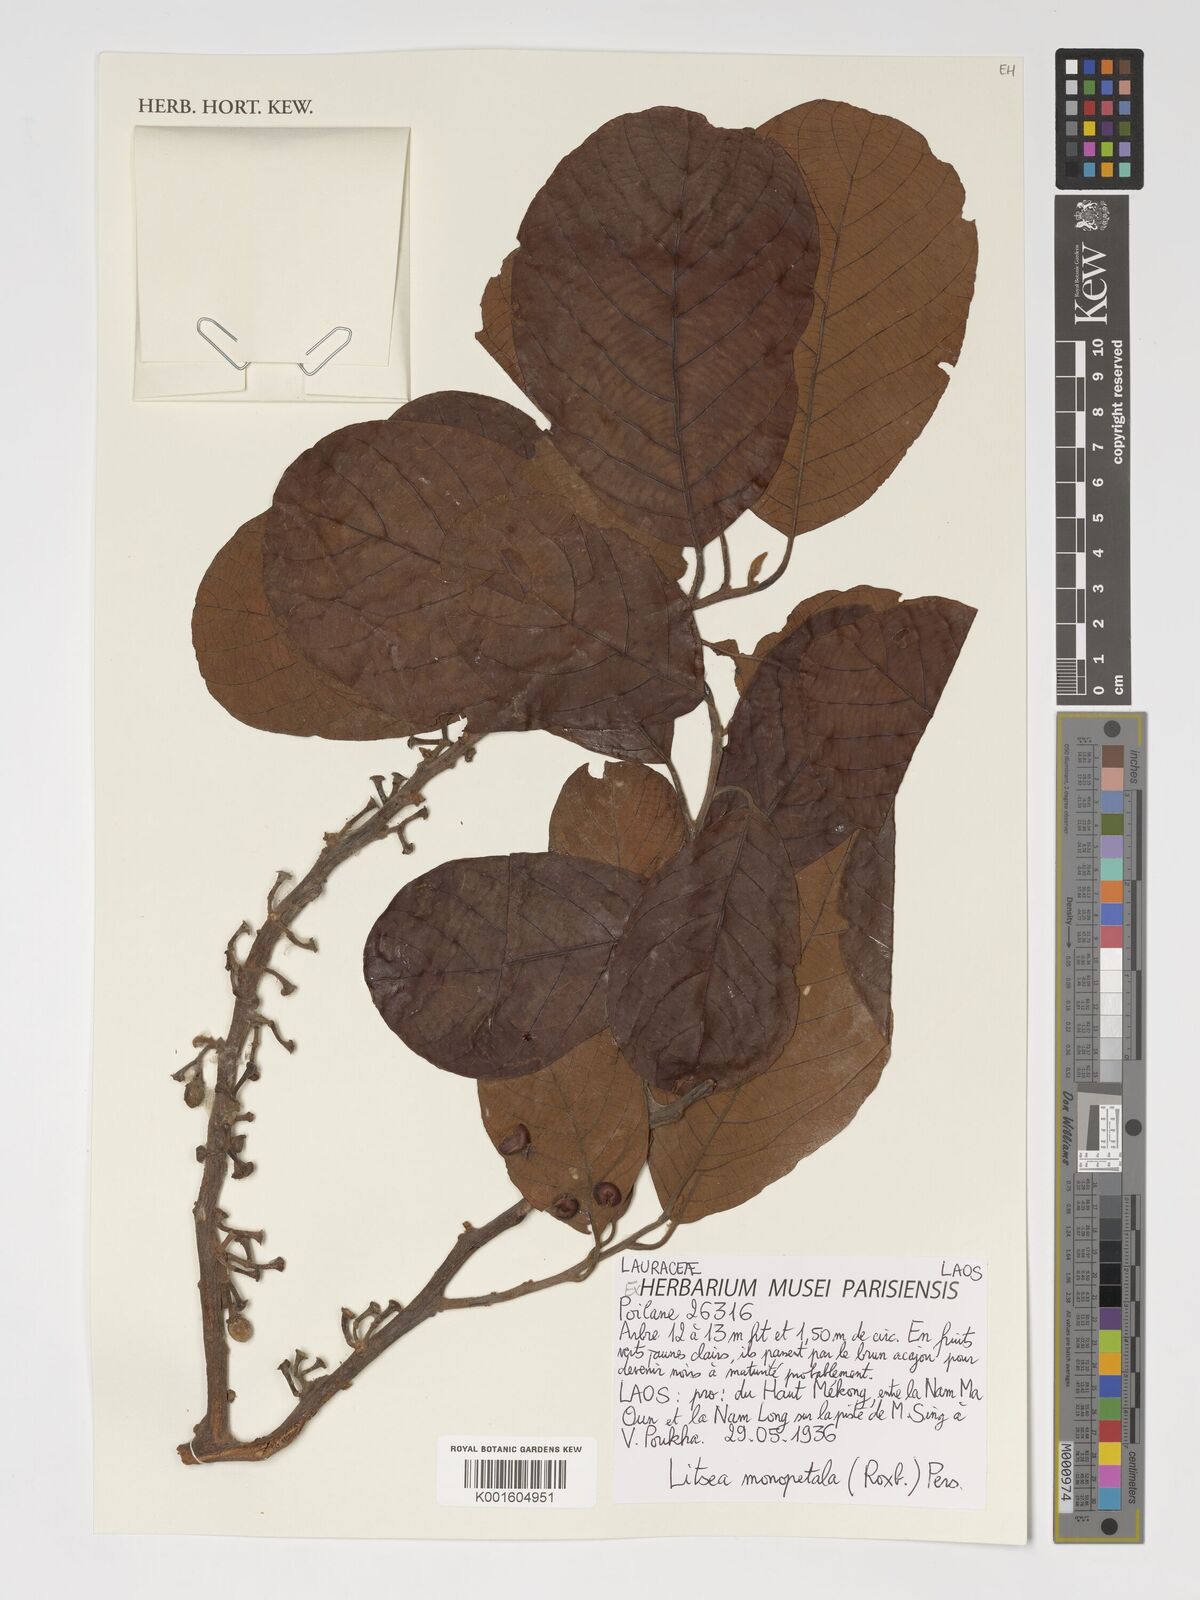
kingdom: Plantae
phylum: Tracheophyta
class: Magnoliopsida
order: Laurales
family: Lauraceae
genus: Litsea
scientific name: Litsea monopetala
